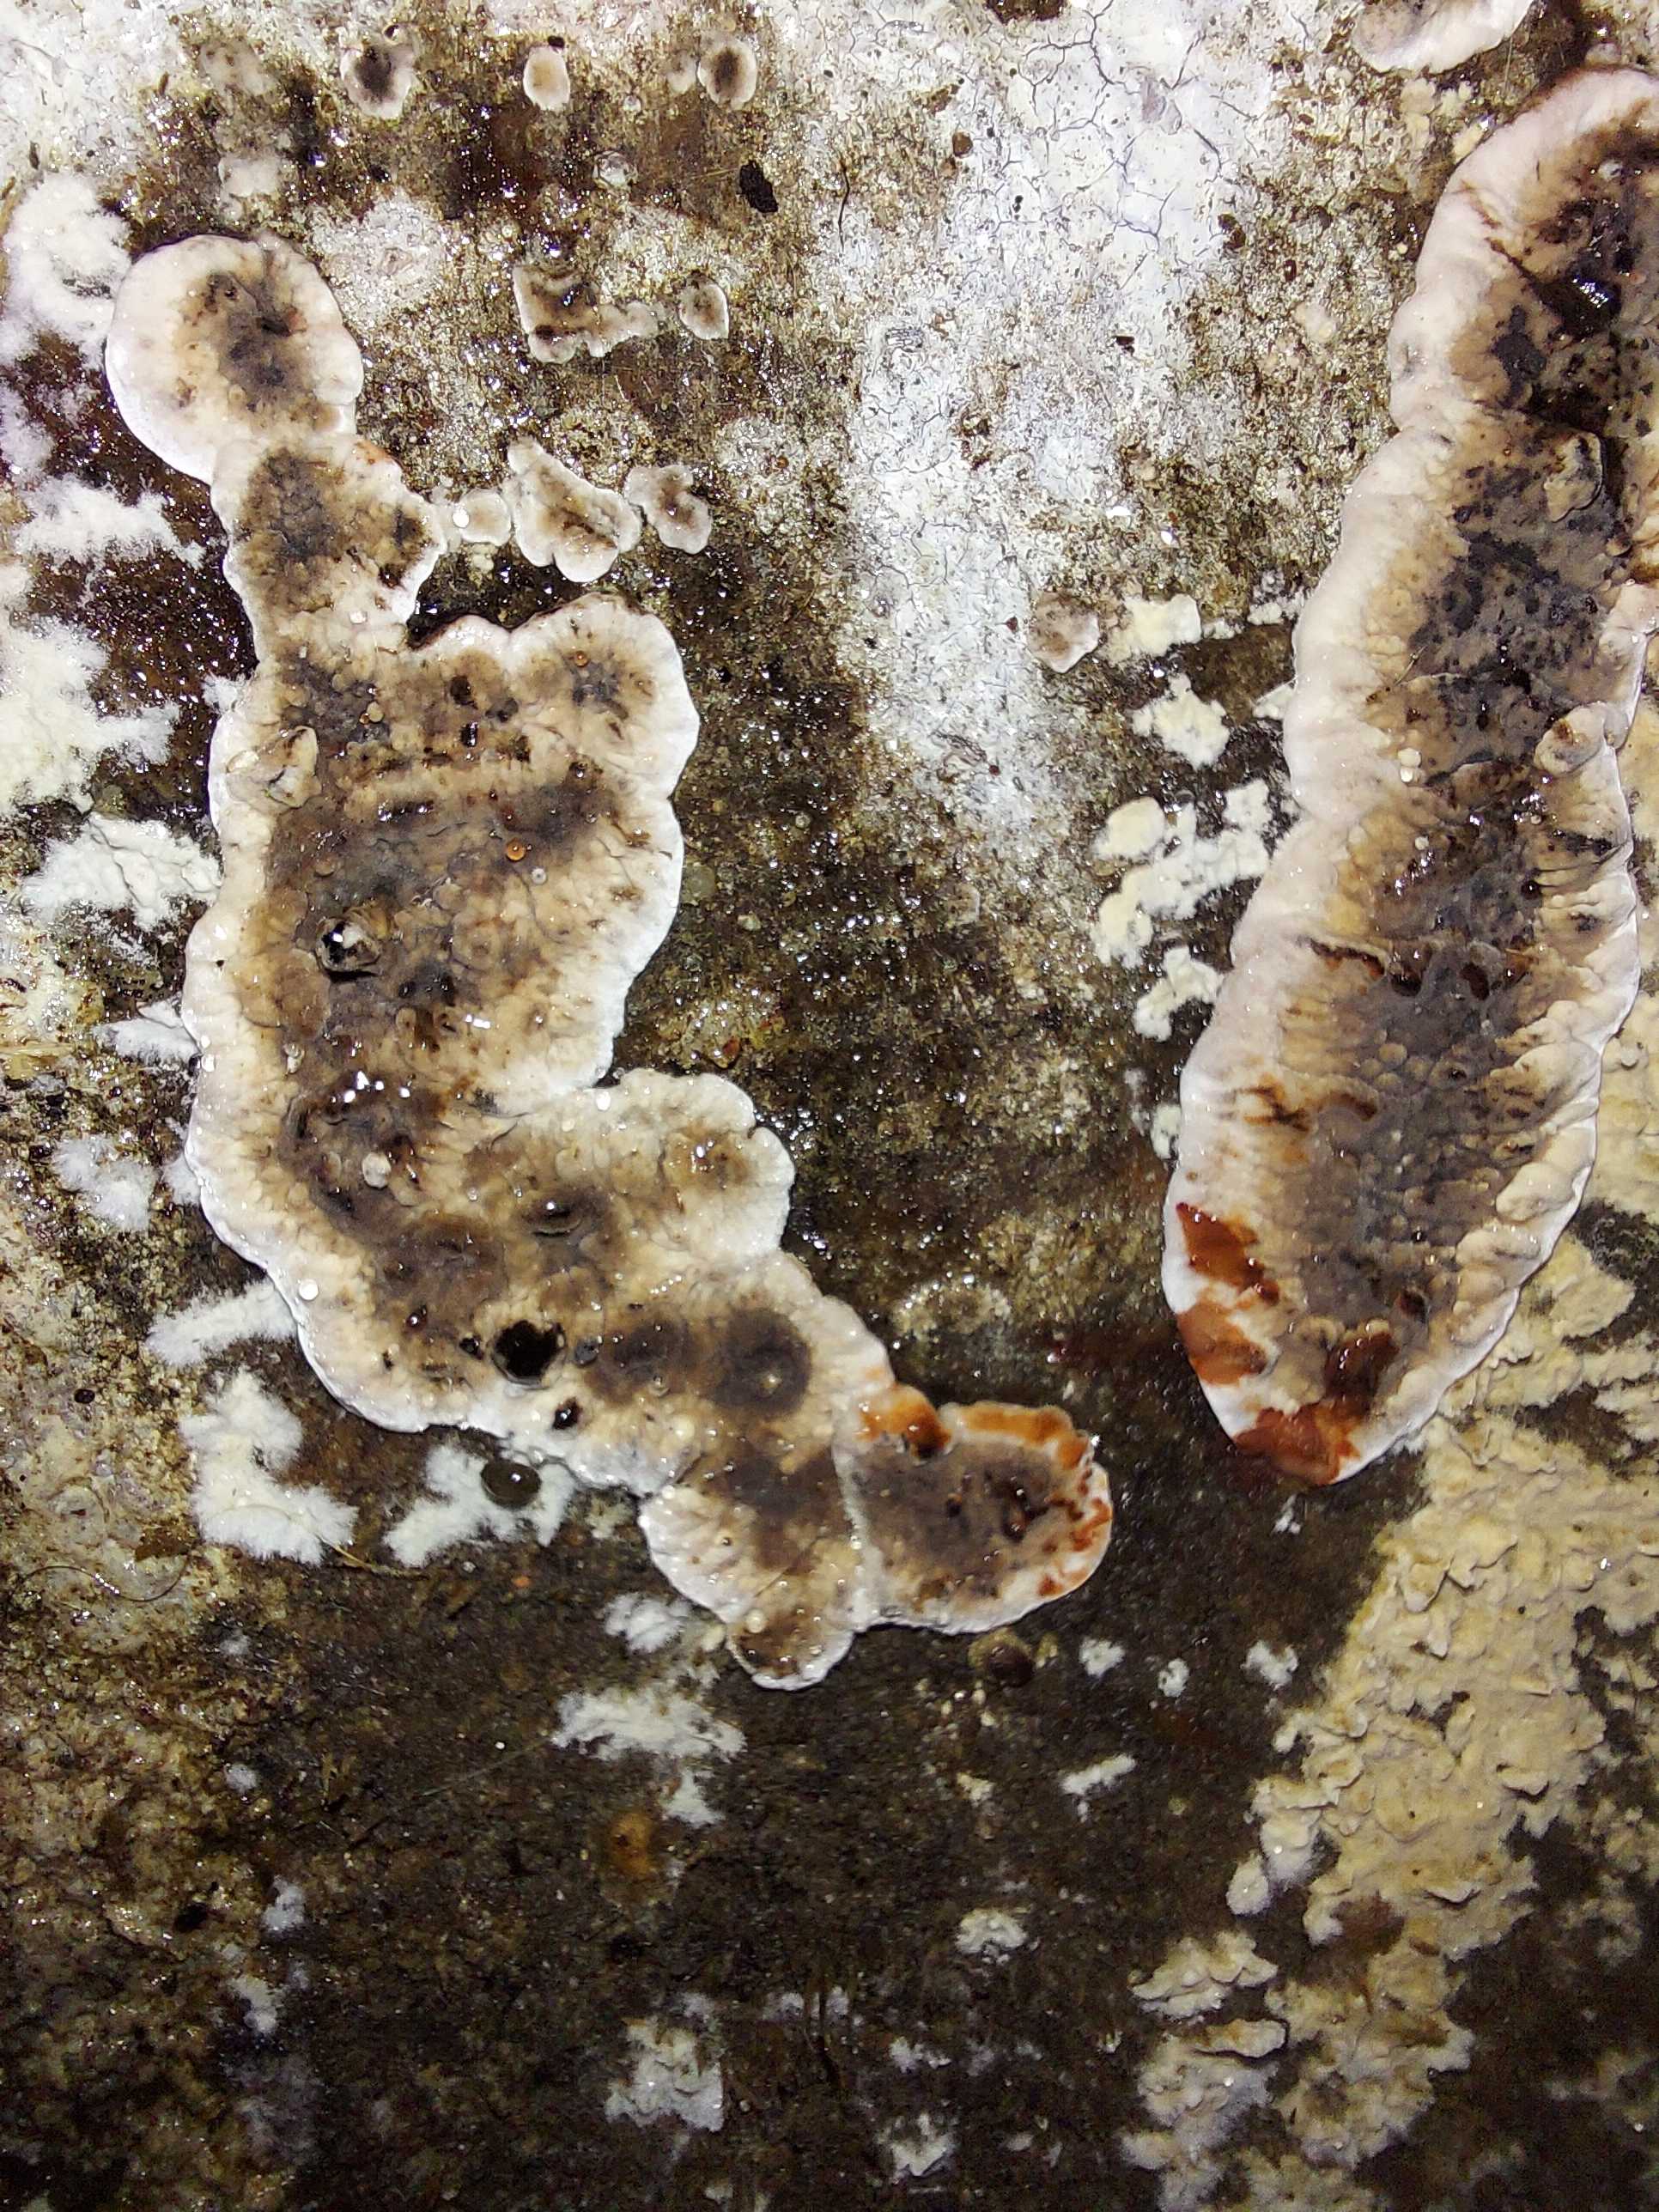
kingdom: Fungi
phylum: Basidiomycota
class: Agaricomycetes
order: Russulales
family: Stereaceae
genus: Stereum
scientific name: Stereum sanguinolentum
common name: blødende lædersvamp
